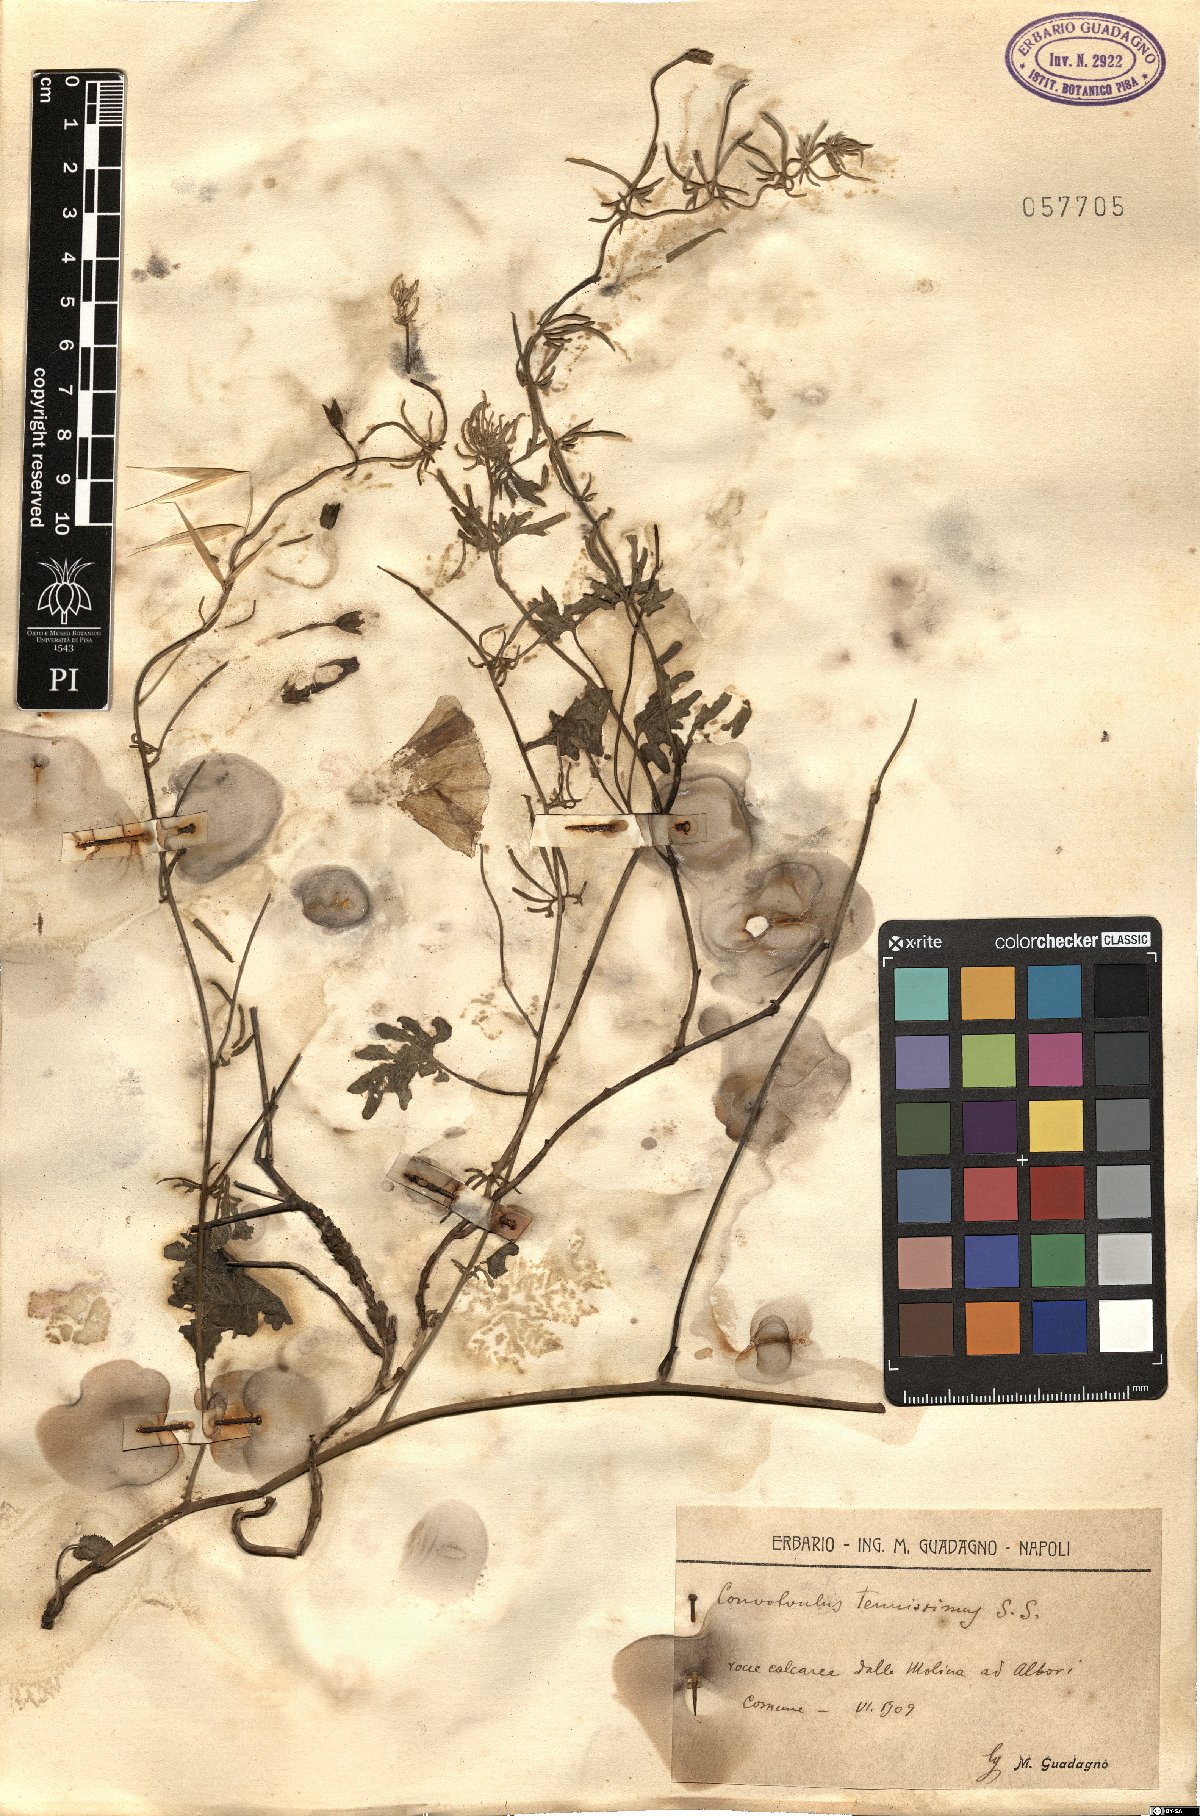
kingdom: Plantae
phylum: Tracheophyta
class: Magnoliopsida
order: Solanales
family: Convolvulaceae
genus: Convolvulus
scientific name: Convolvulus elegantissimus
